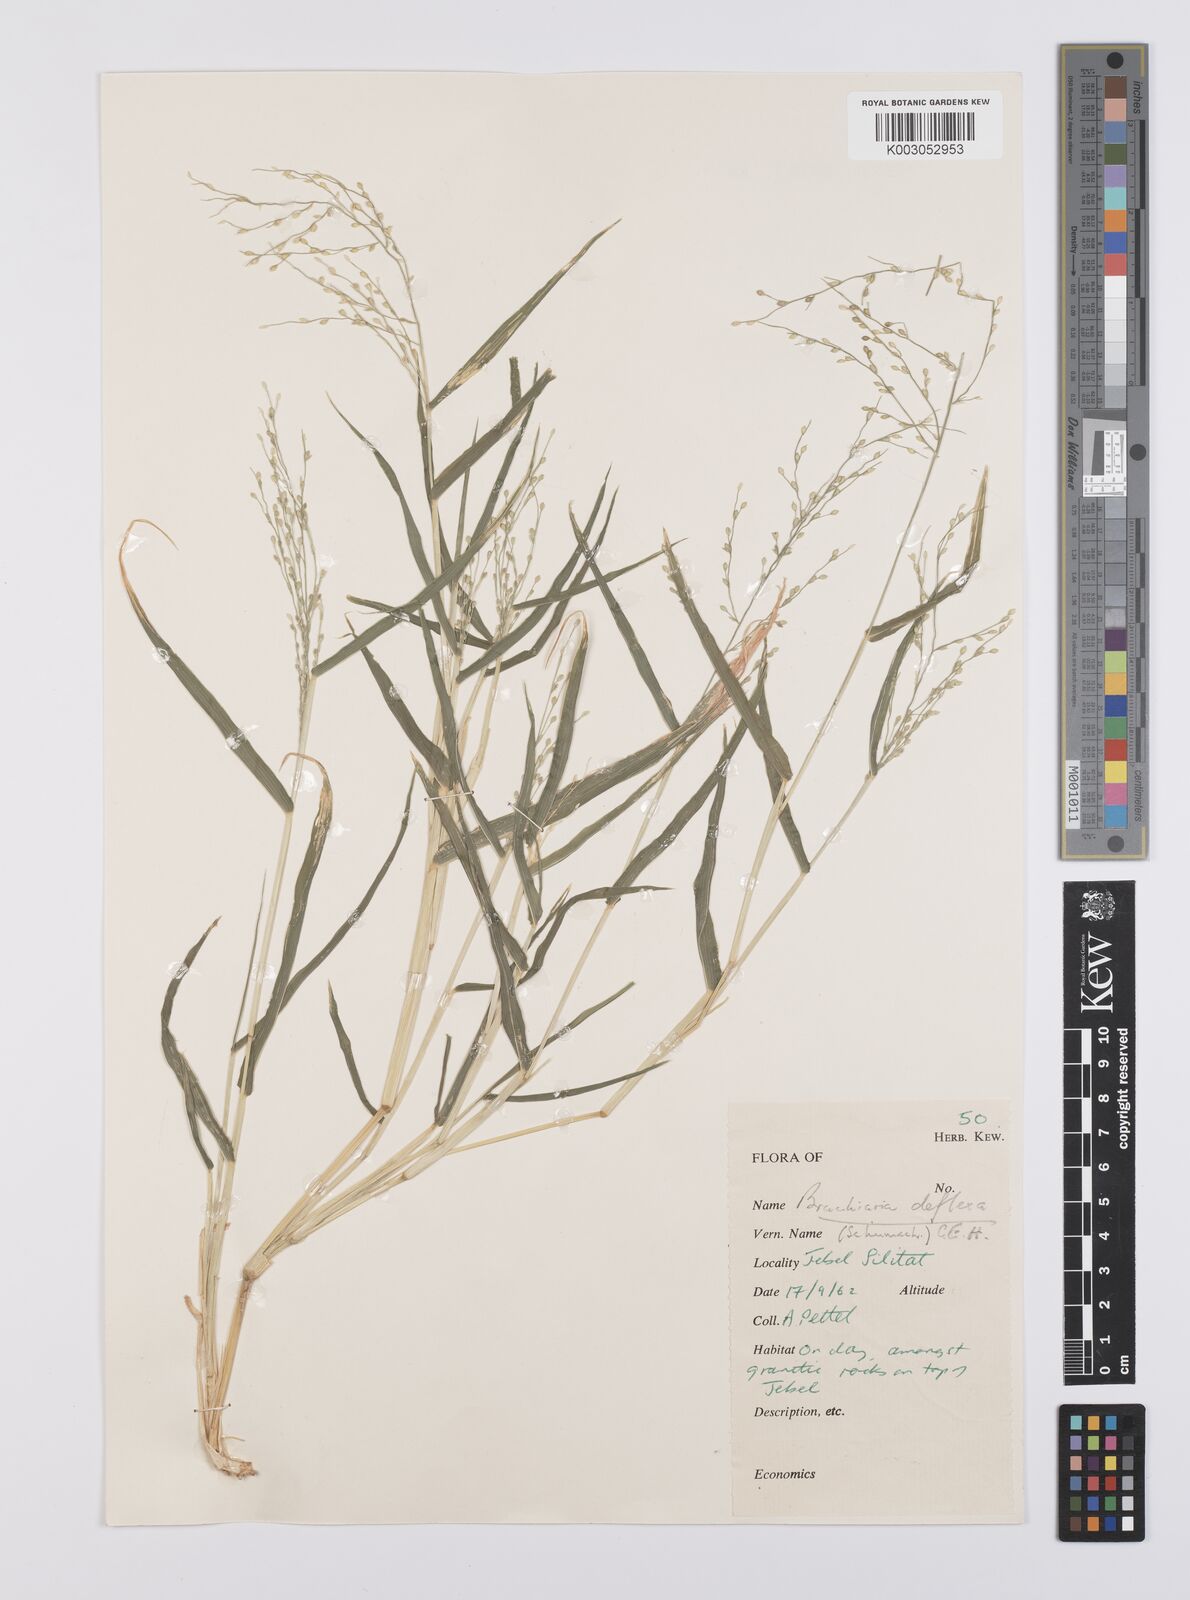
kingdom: Plantae
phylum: Tracheophyta
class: Liliopsida
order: Poales
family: Poaceae
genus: Urochloa
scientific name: Urochloa deflexa
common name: Guinea millet
